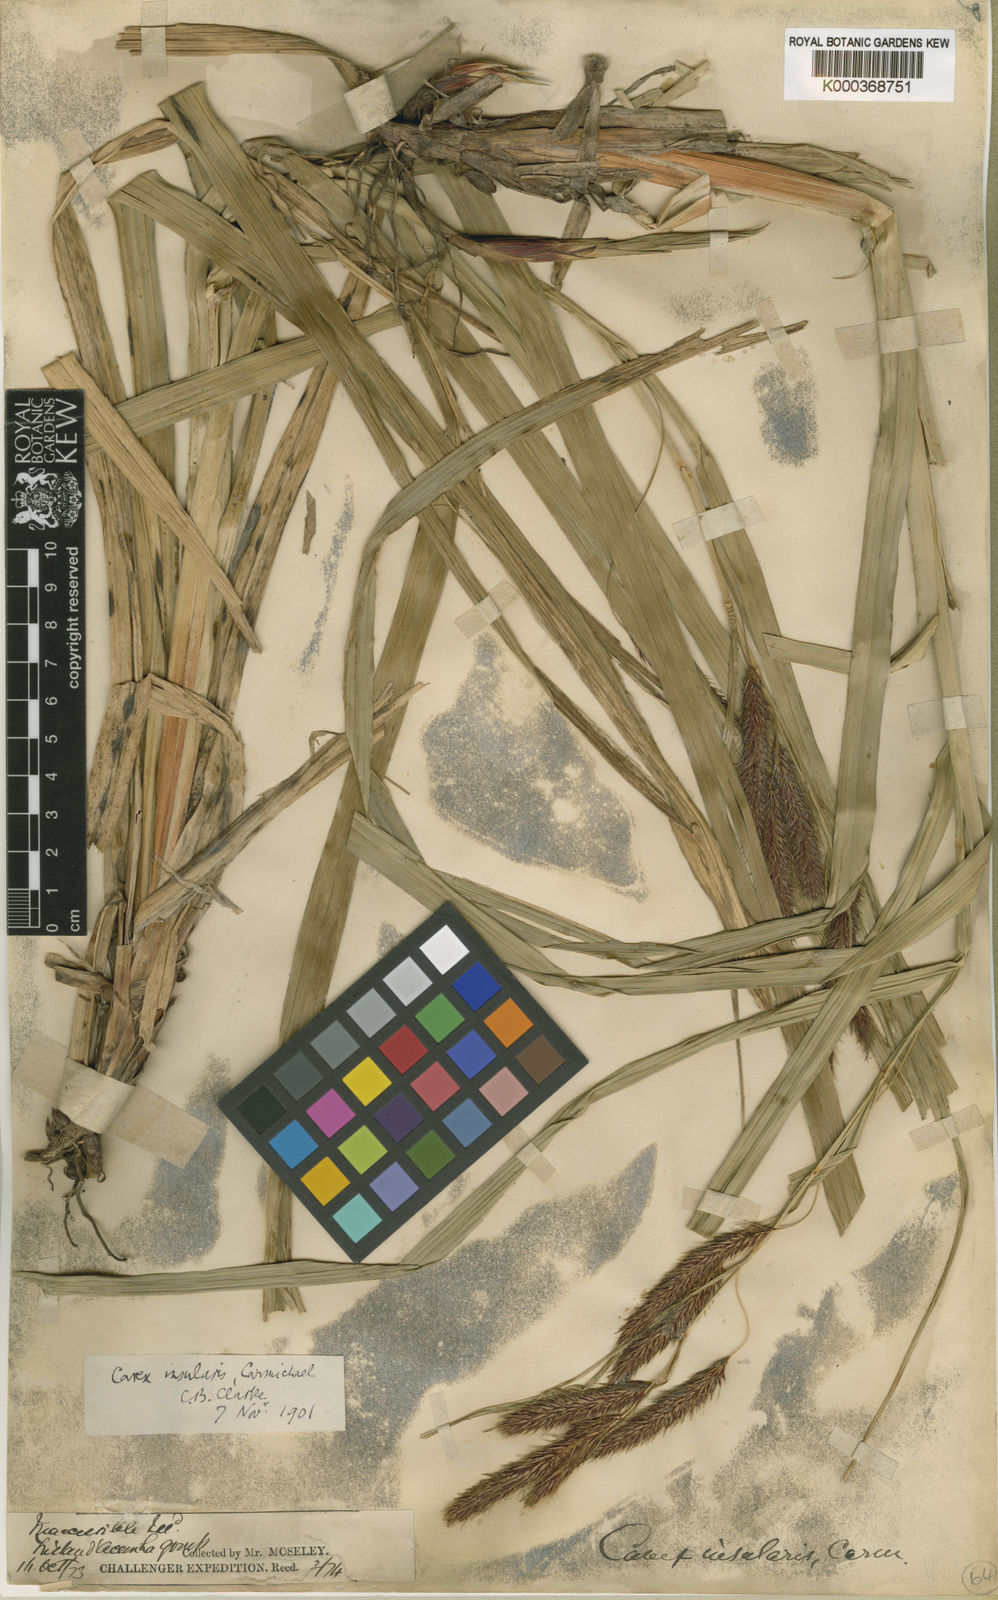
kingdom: Plantae
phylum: Tracheophyta
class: Liliopsida
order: Poales
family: Cyperaceae
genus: Carex
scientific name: Carex insularis
